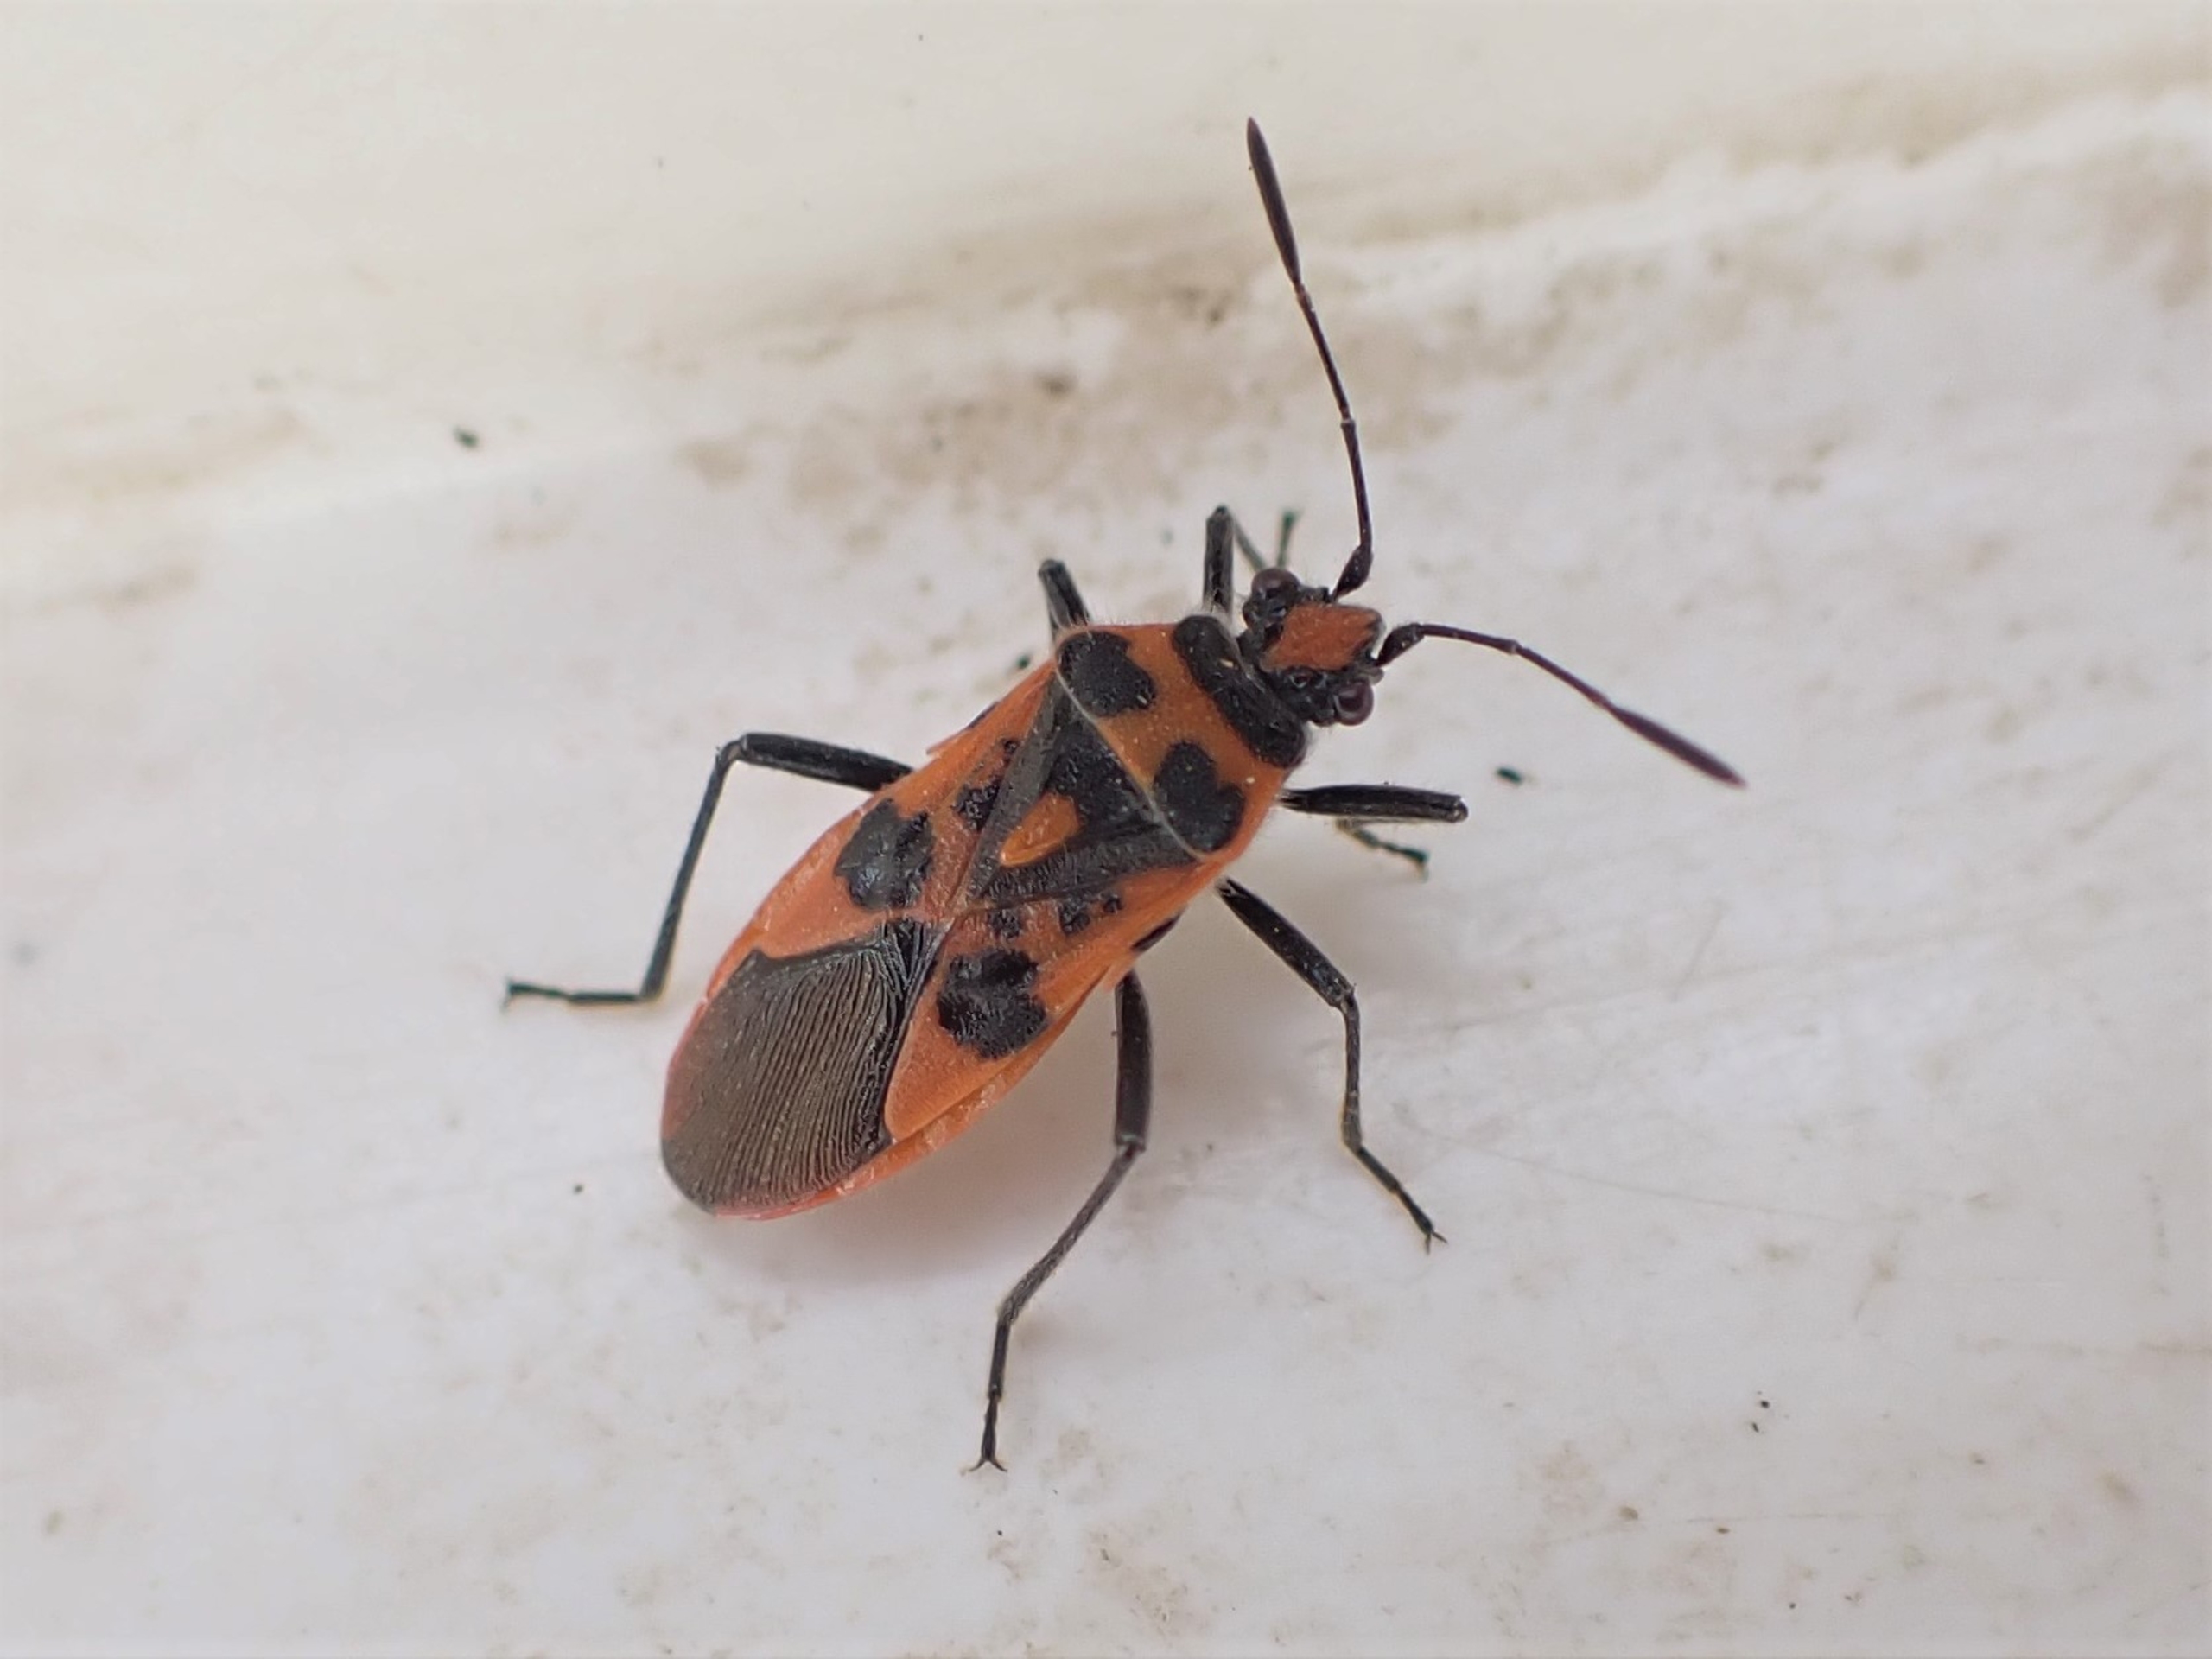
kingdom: Animalia
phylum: Arthropoda
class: Insecta
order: Hemiptera
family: Rhopalidae
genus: Corizus
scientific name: Corizus hyoscyami
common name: Rød kanttæge
